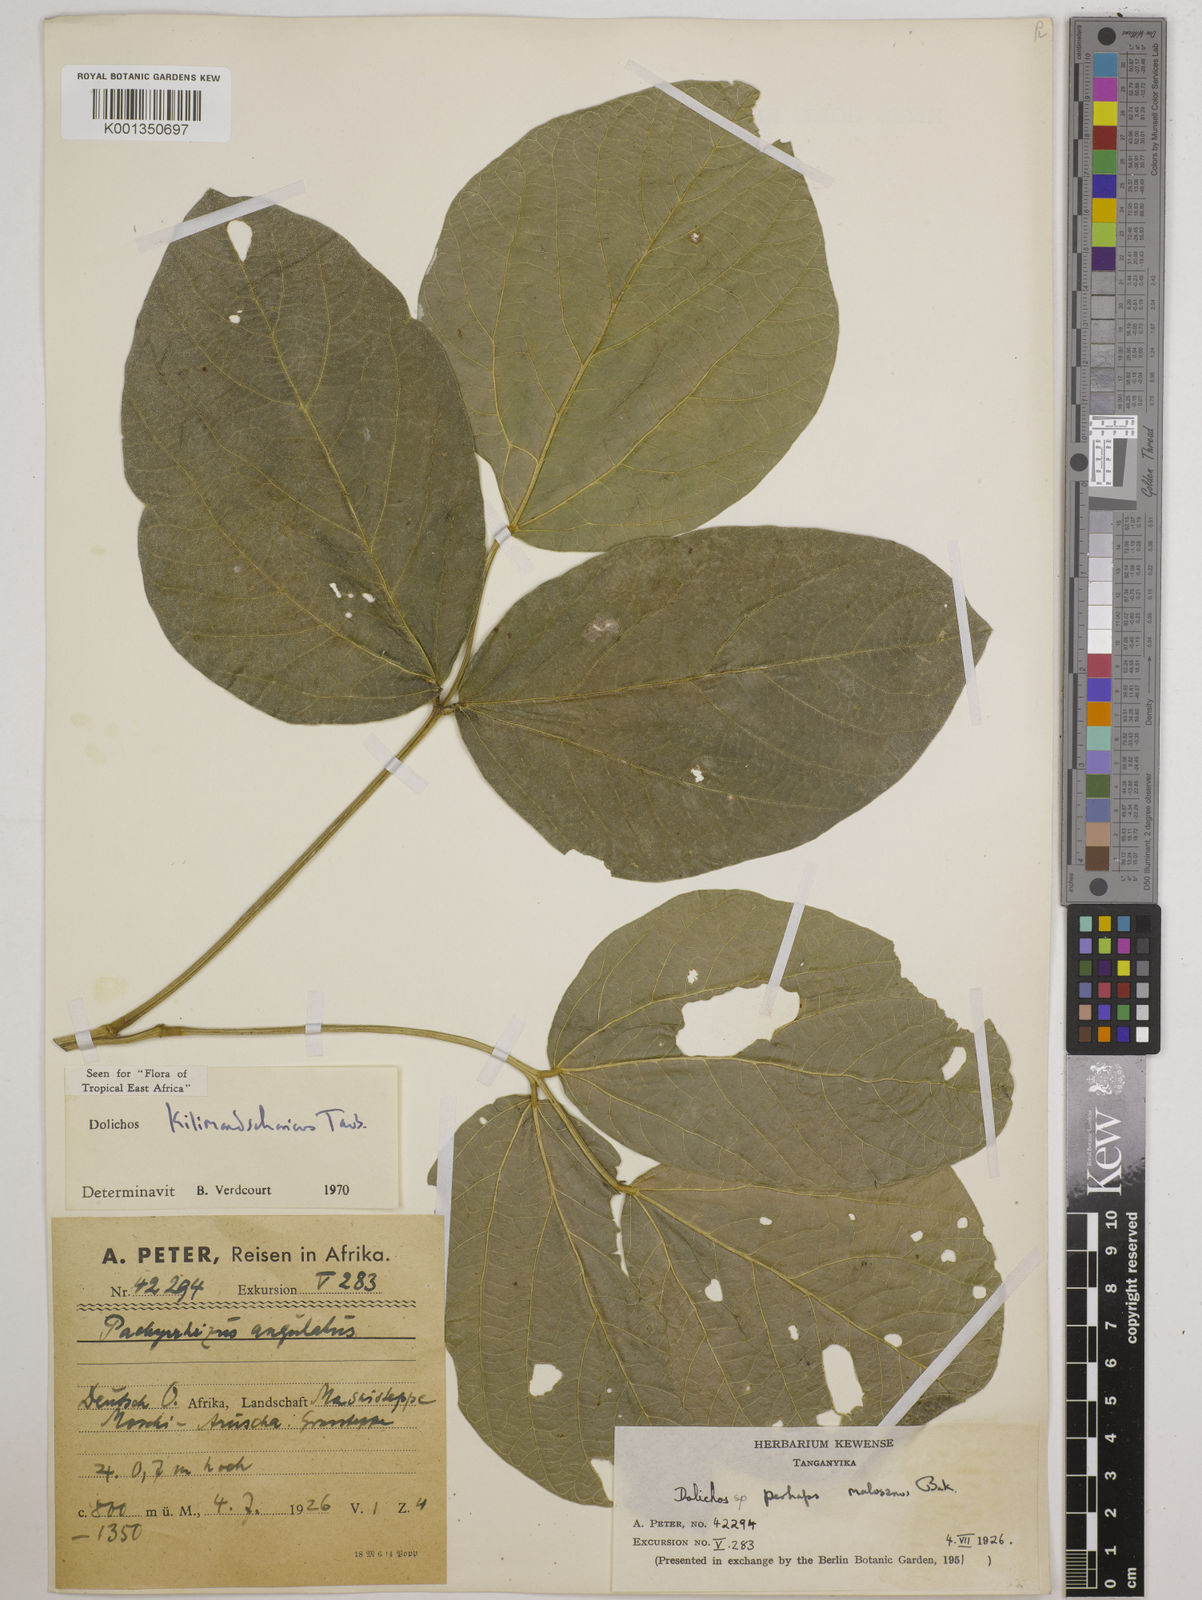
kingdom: Plantae
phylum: Tracheophyta
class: Magnoliopsida
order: Fabales
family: Fabaceae
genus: Dolichos
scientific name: Dolichos kilimandscharicus
